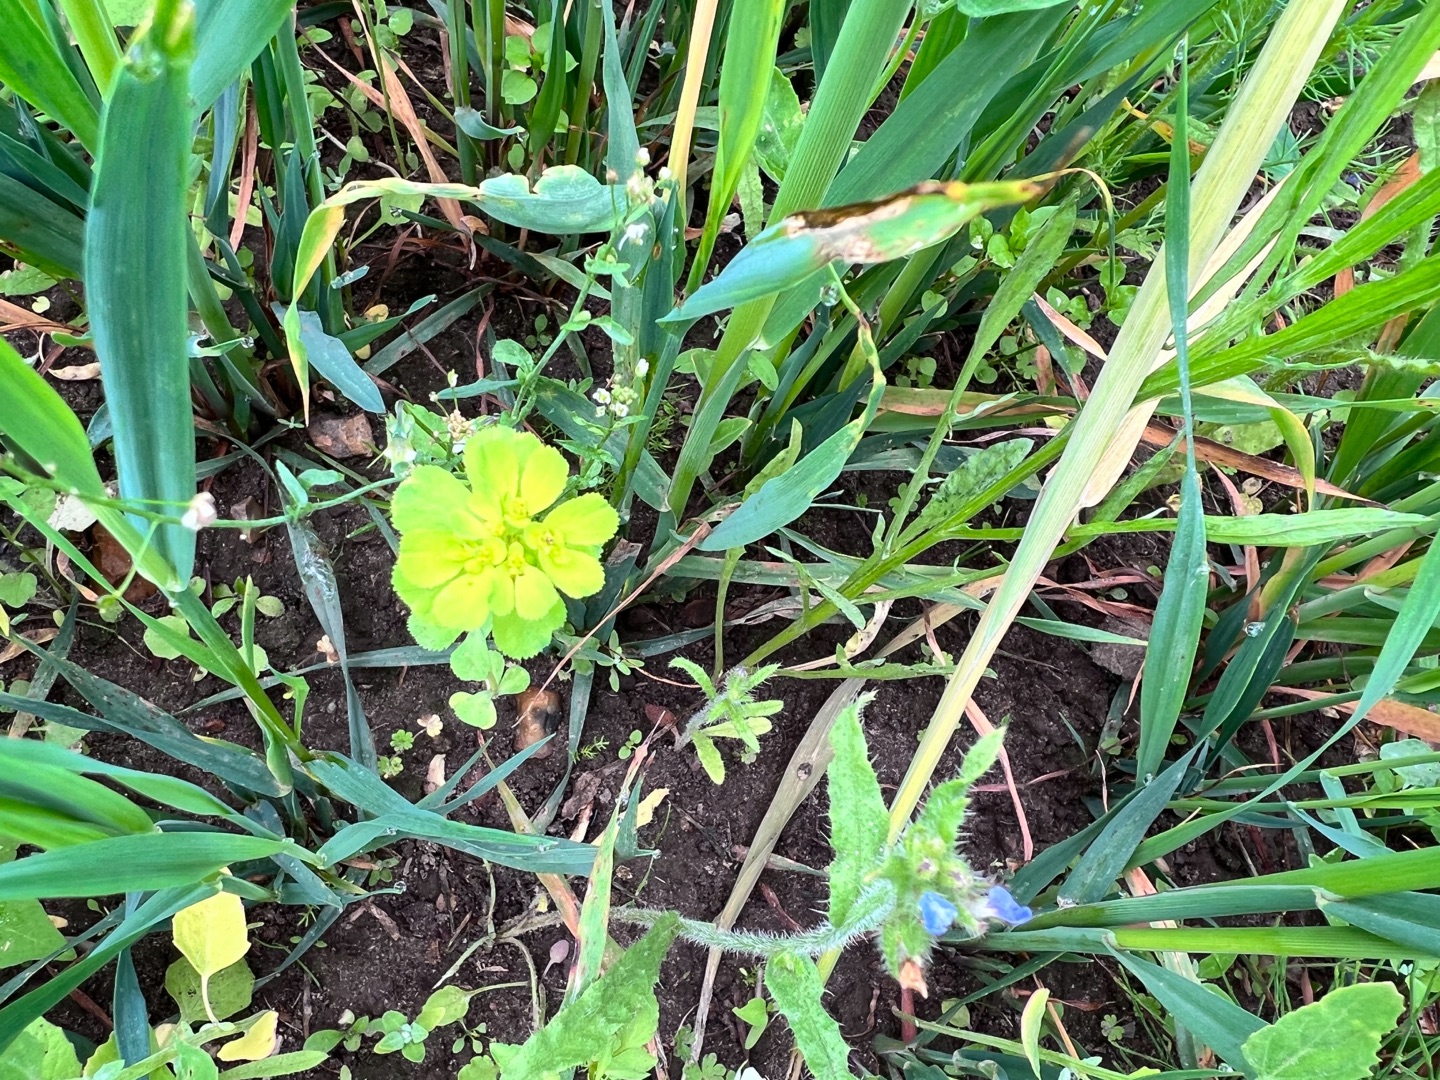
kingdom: Plantae
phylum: Tracheophyta
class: Magnoliopsida
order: Malpighiales
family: Euphorbiaceae
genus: Euphorbia
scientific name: Euphorbia helioscopia
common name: Skærm-vortemælk
